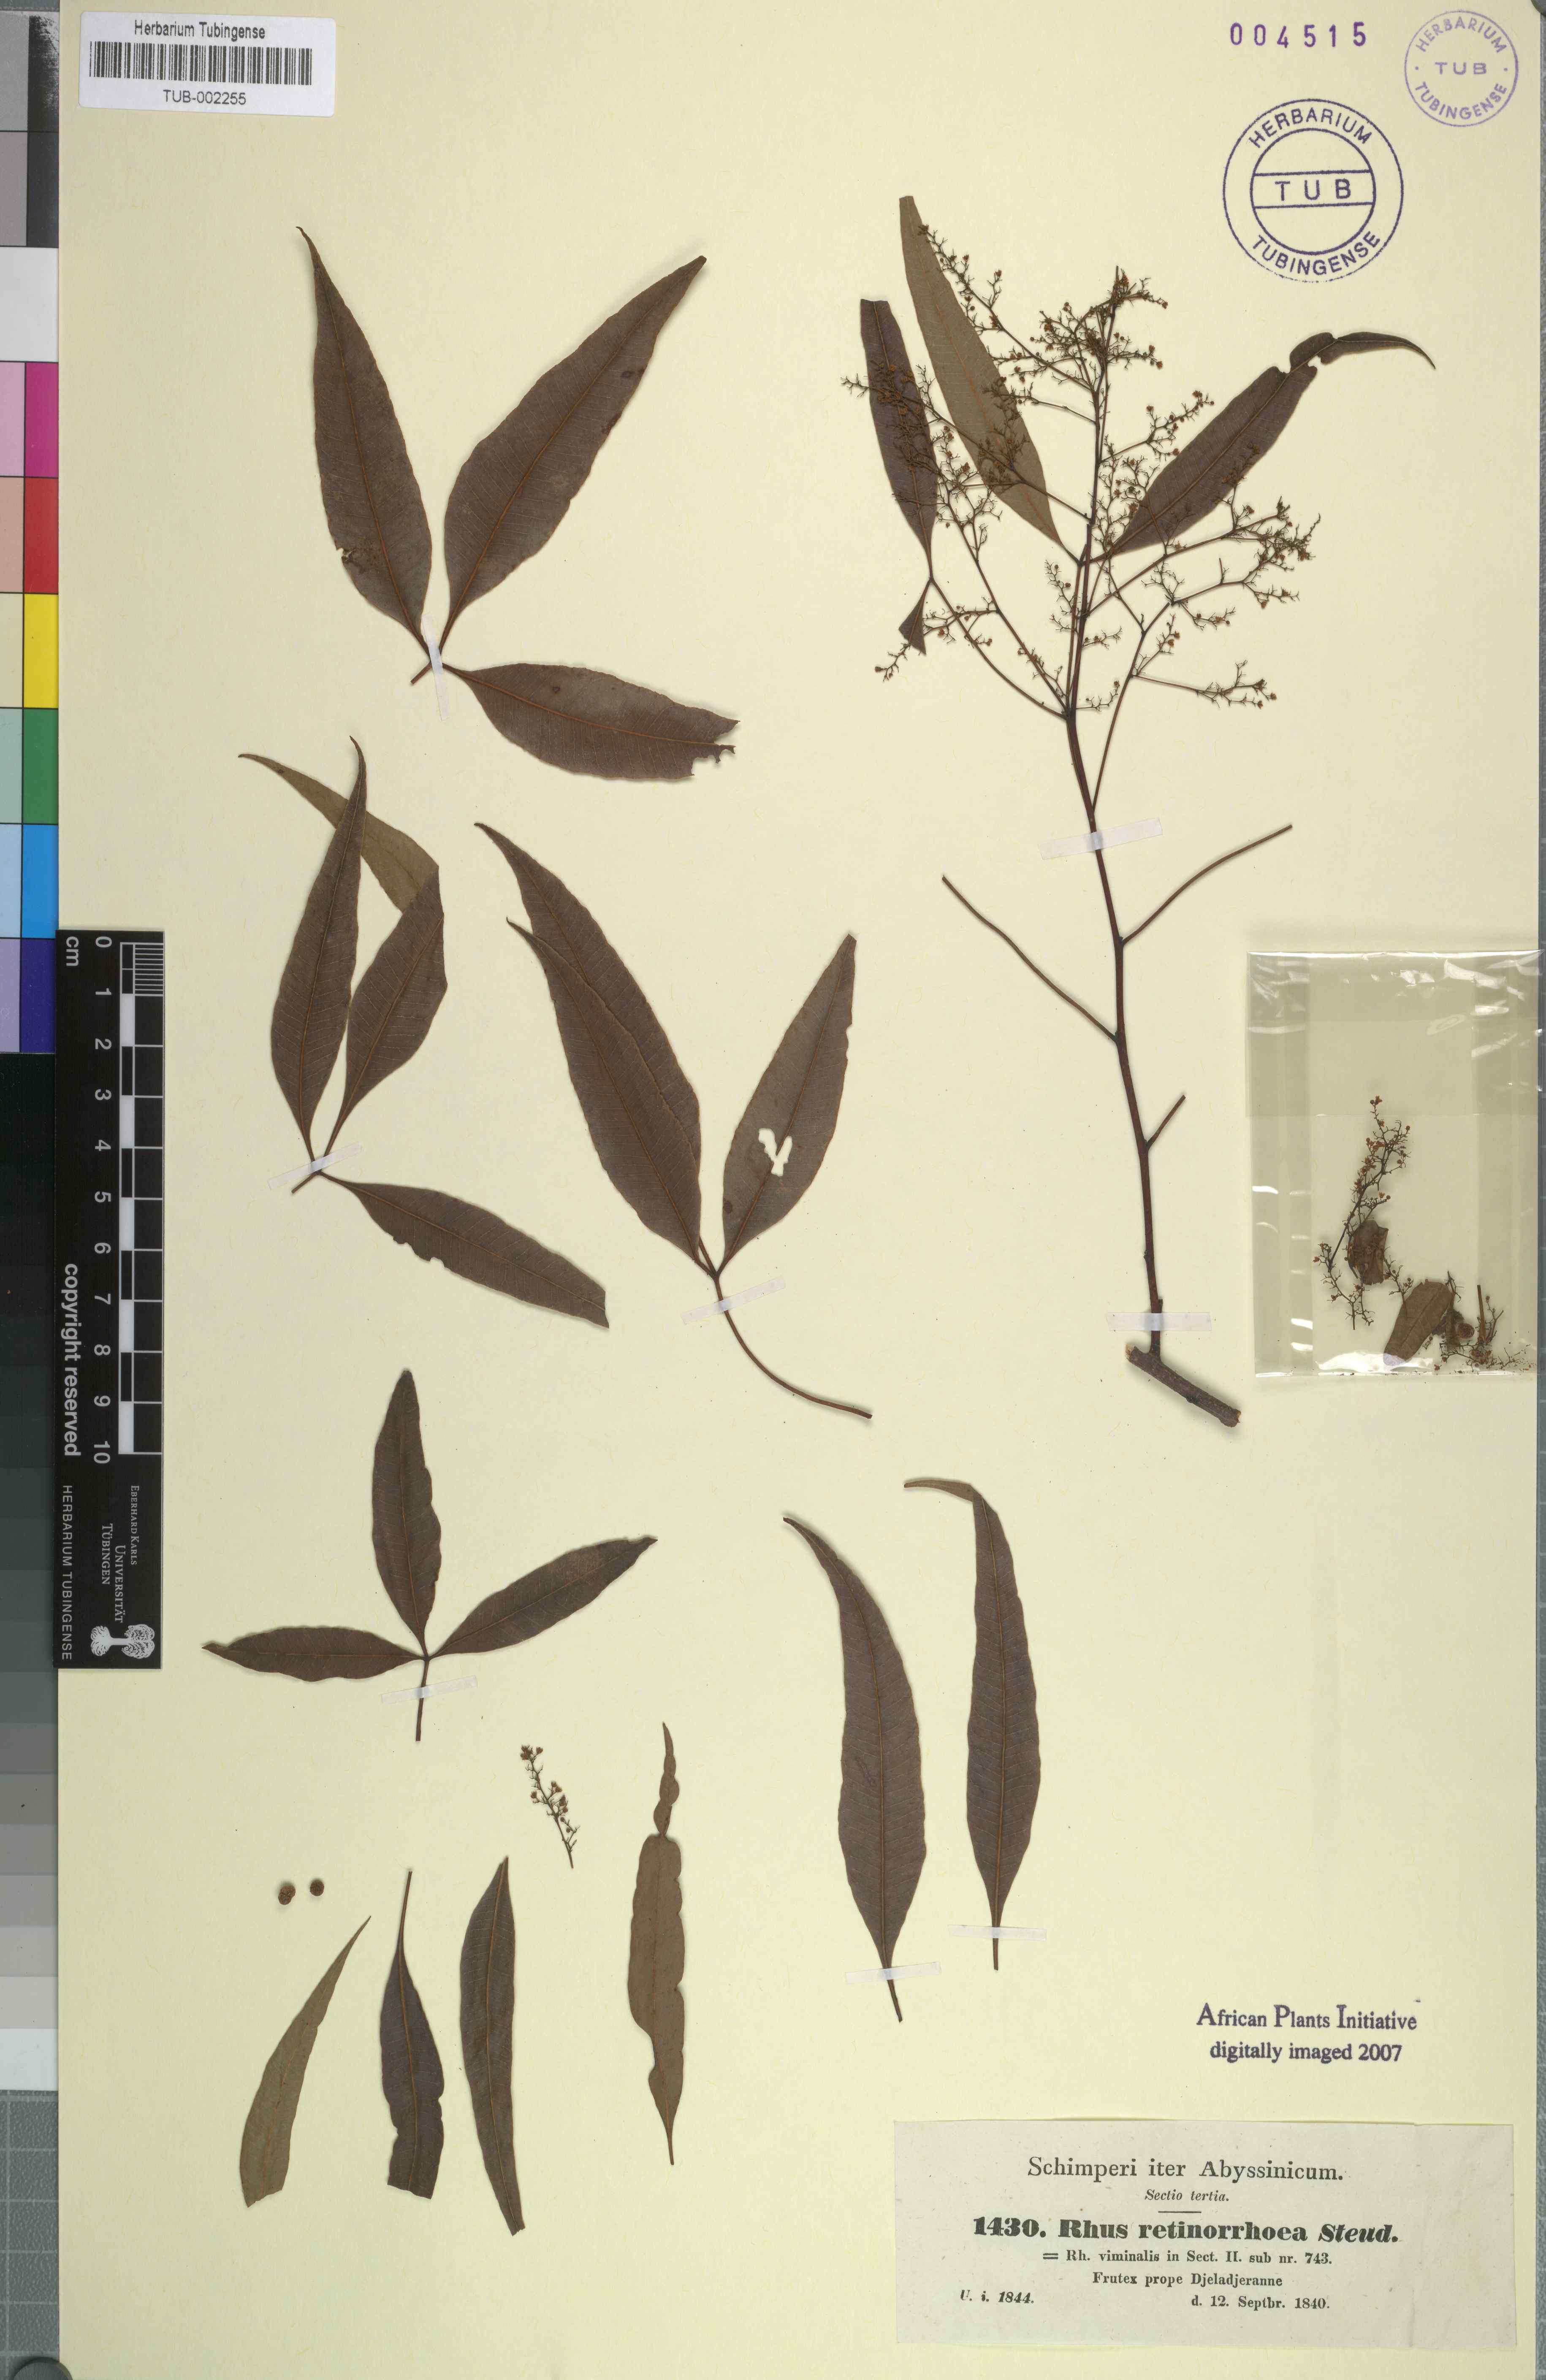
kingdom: Plantae
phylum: Tracheophyta
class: Magnoliopsida
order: Sapindales
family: Anacardiaceae
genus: Rhus
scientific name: Rhus retinorrhaea
